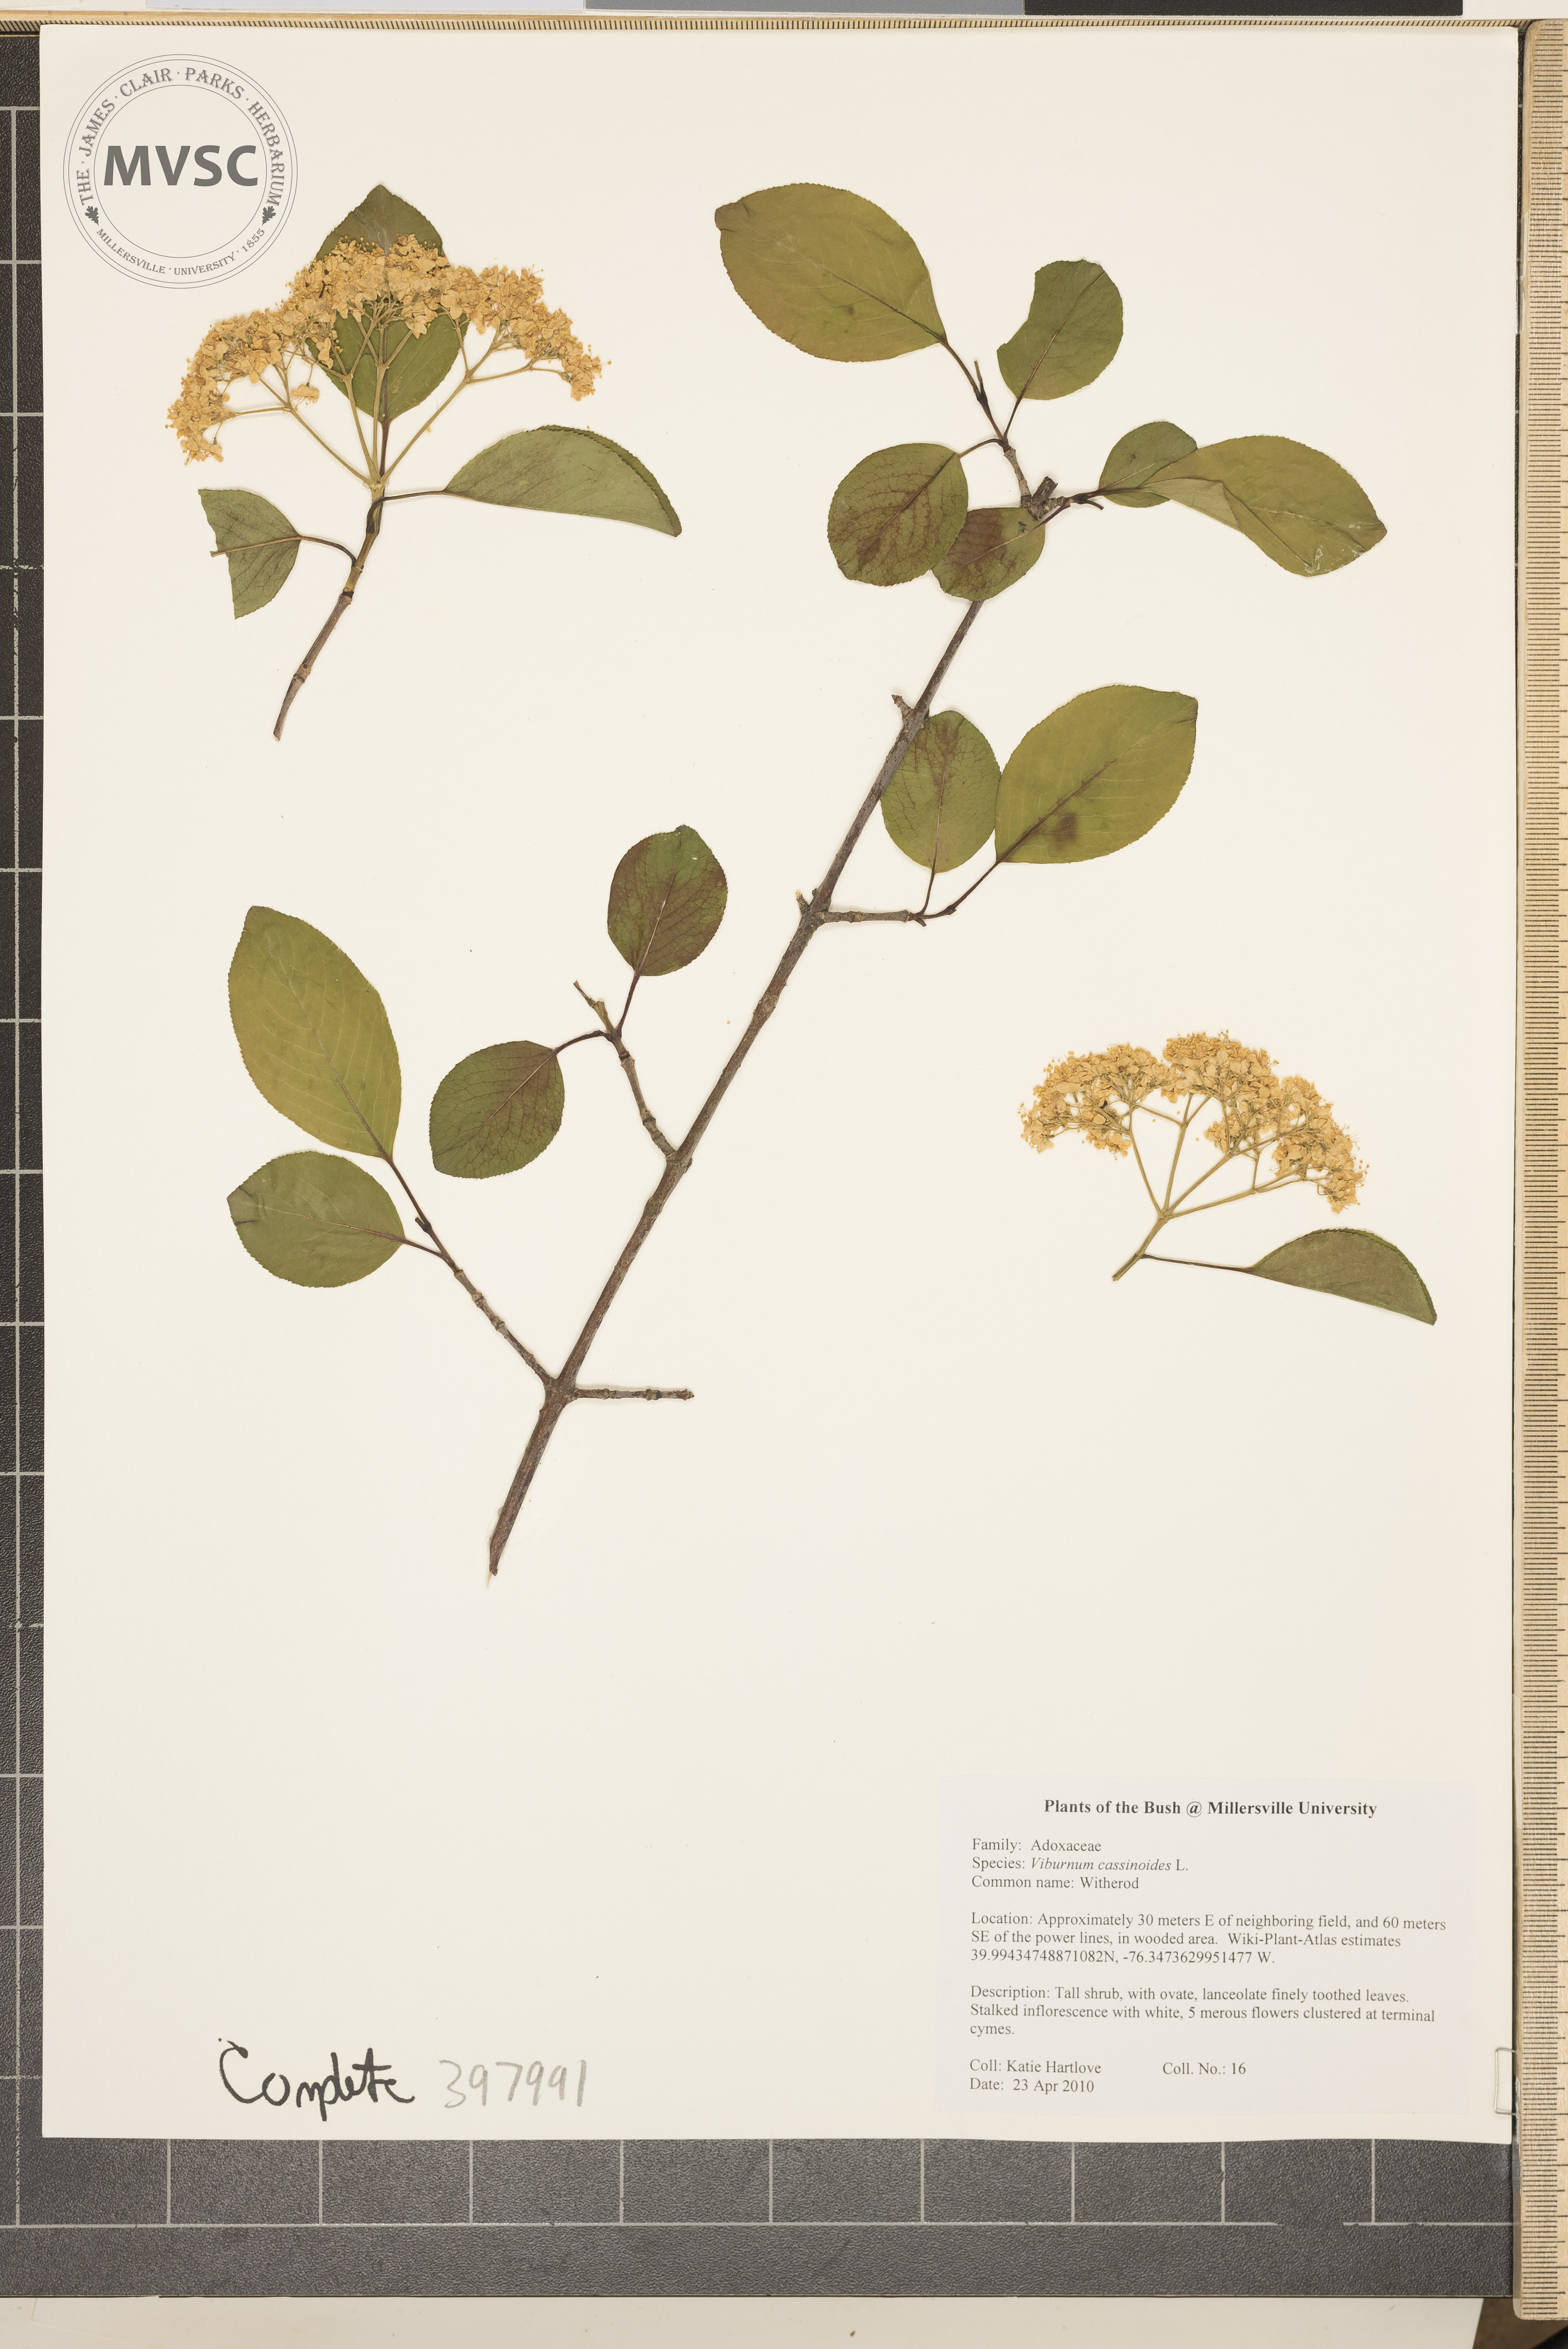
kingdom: Plantae
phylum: Tracheophyta
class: Magnoliopsida
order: Dipsacales
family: Viburnaceae
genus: Viburnum
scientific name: Viburnum cassinoides
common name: Witherod
